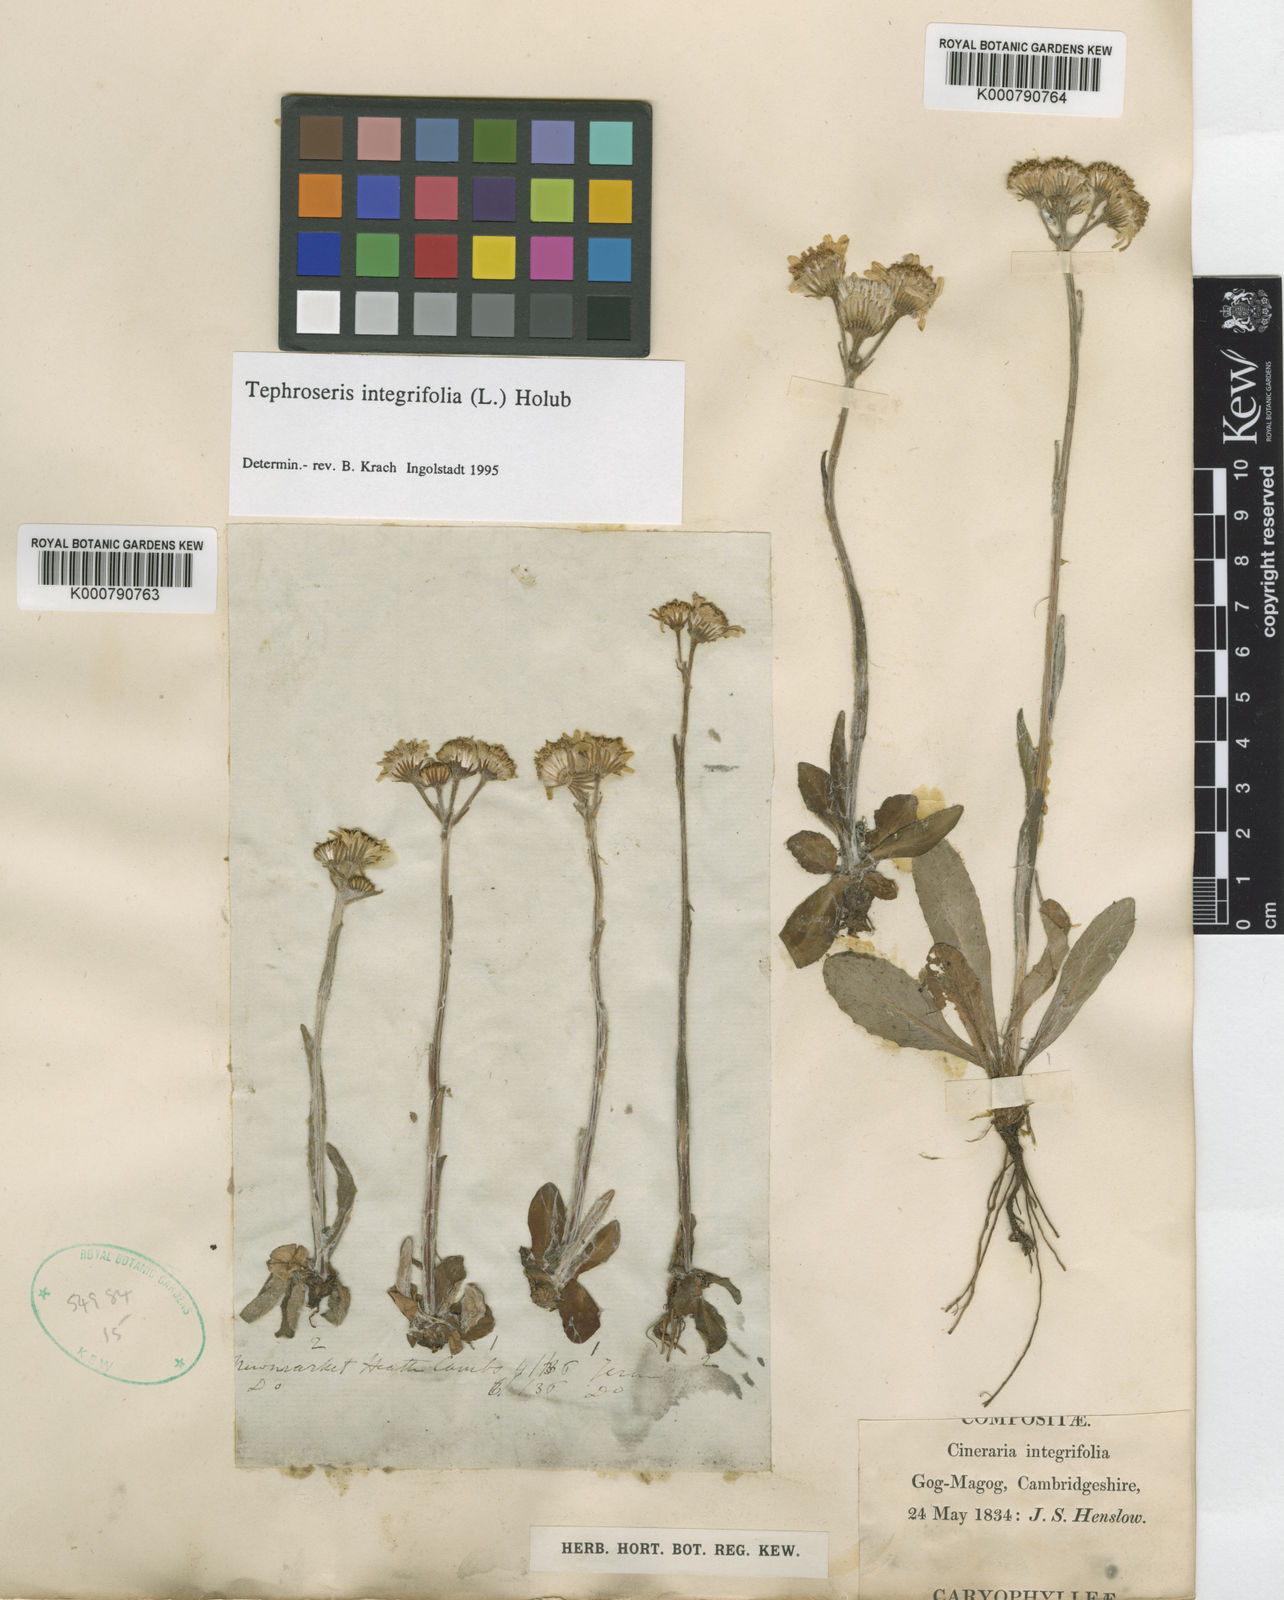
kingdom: Plantae
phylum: Tracheophyta
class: Magnoliopsida
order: Asterales
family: Asteraceae
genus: Tephroseris
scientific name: Tephroseris integrifolia
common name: Field fleawort
